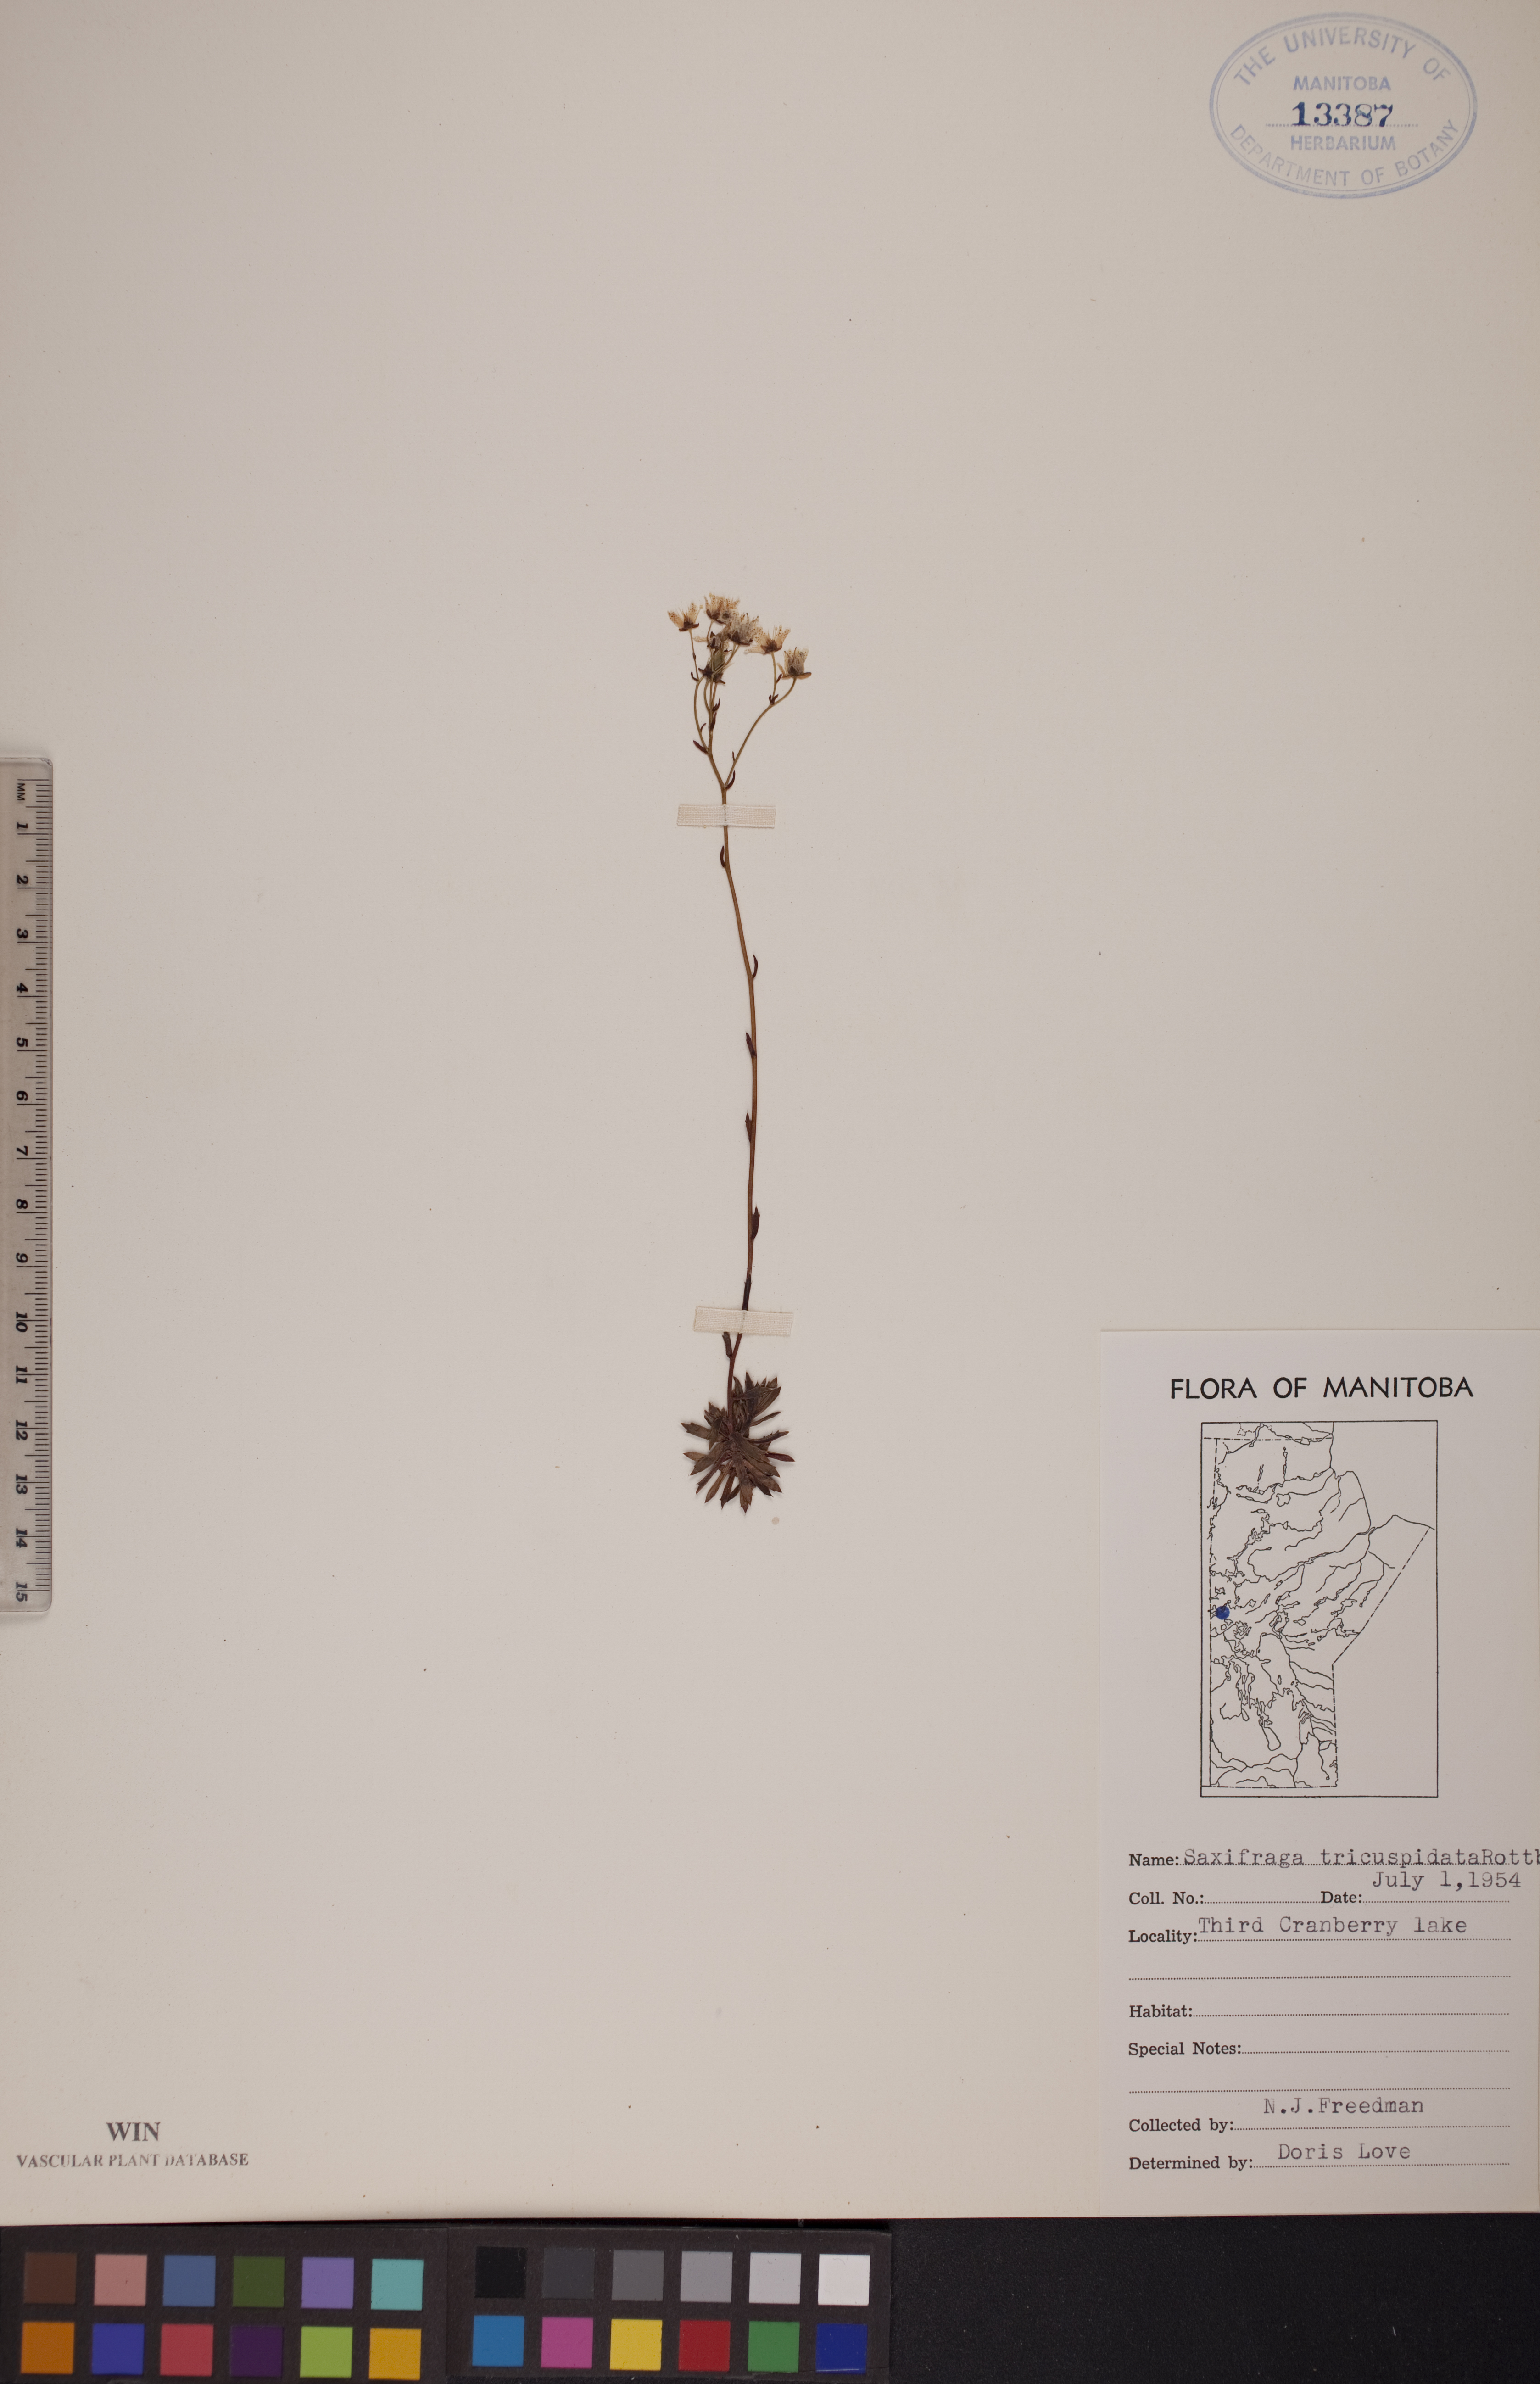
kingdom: Plantae
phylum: Tracheophyta
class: Magnoliopsida
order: Saxifragales
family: Saxifragaceae
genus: Saxifraga
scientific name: Saxifraga tricuspidata
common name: Prickly saxifrage
